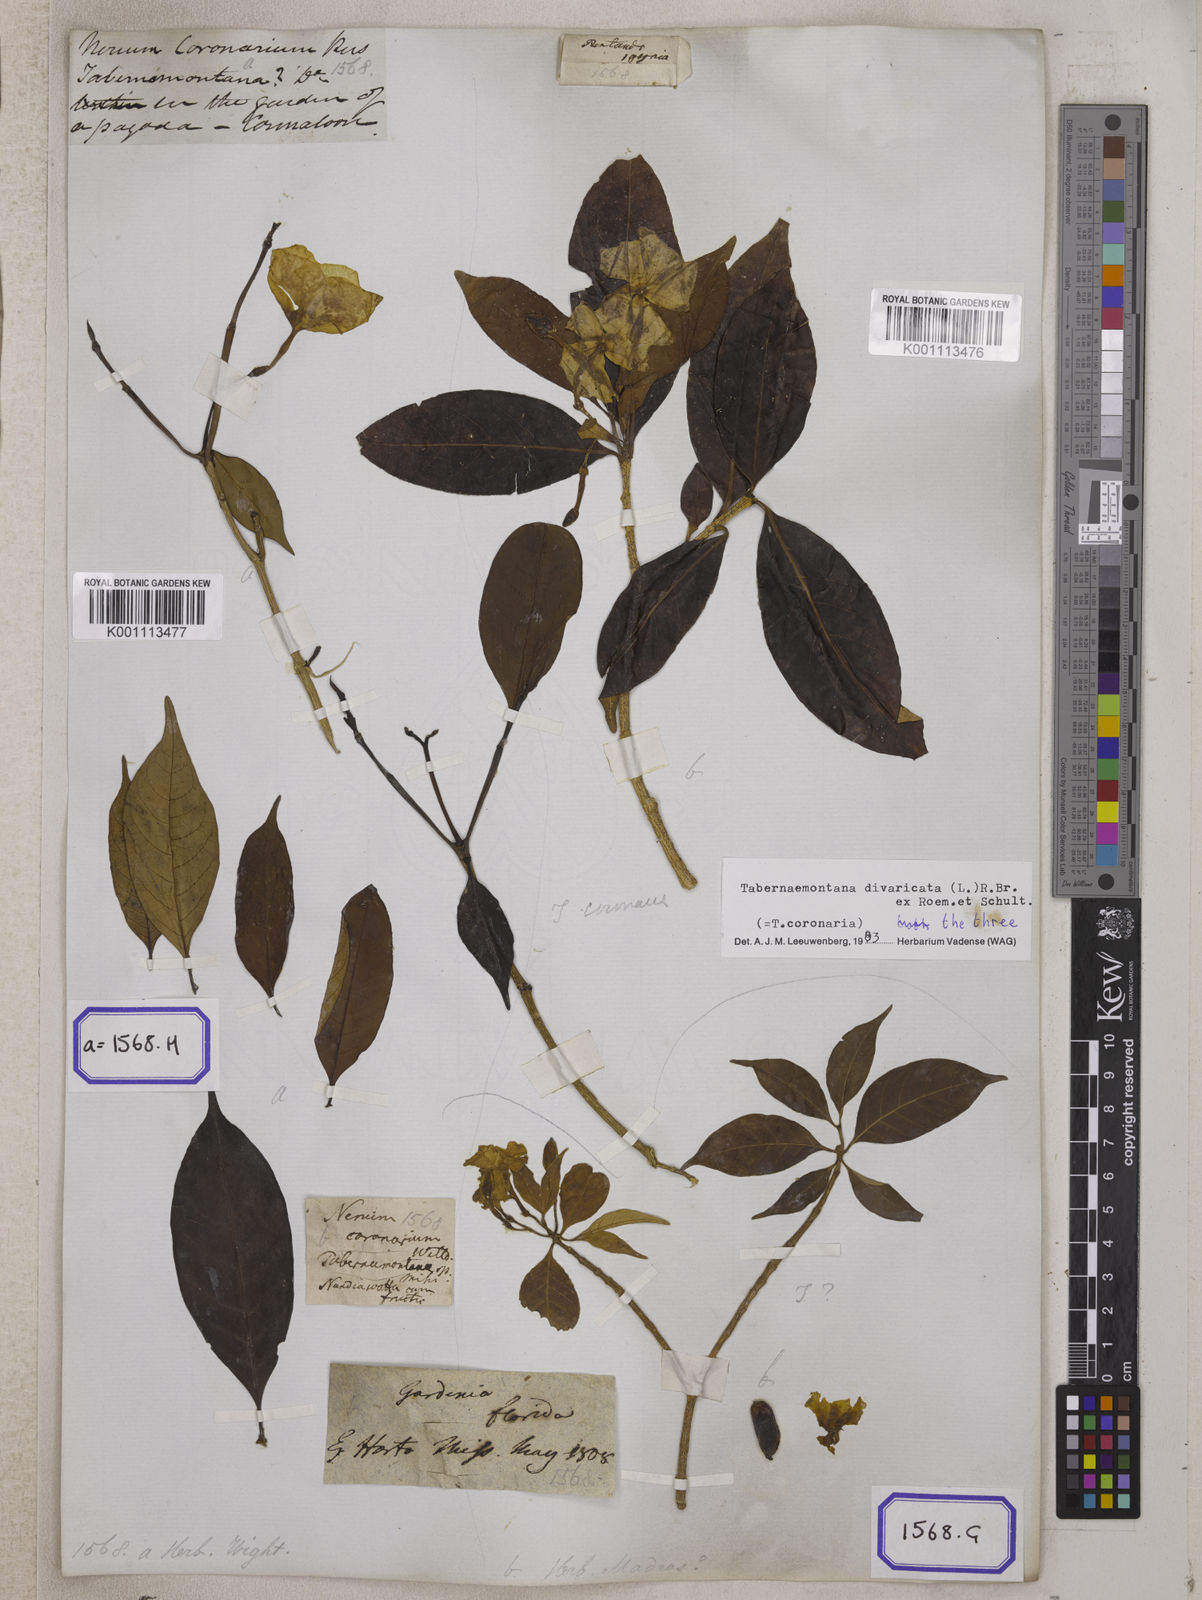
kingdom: Plantae
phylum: Tracheophyta
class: Magnoliopsida
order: Gentianales
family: Apocynaceae
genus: Tabernaemontana
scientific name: Tabernaemontana divaricata
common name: Pinwheelflower
